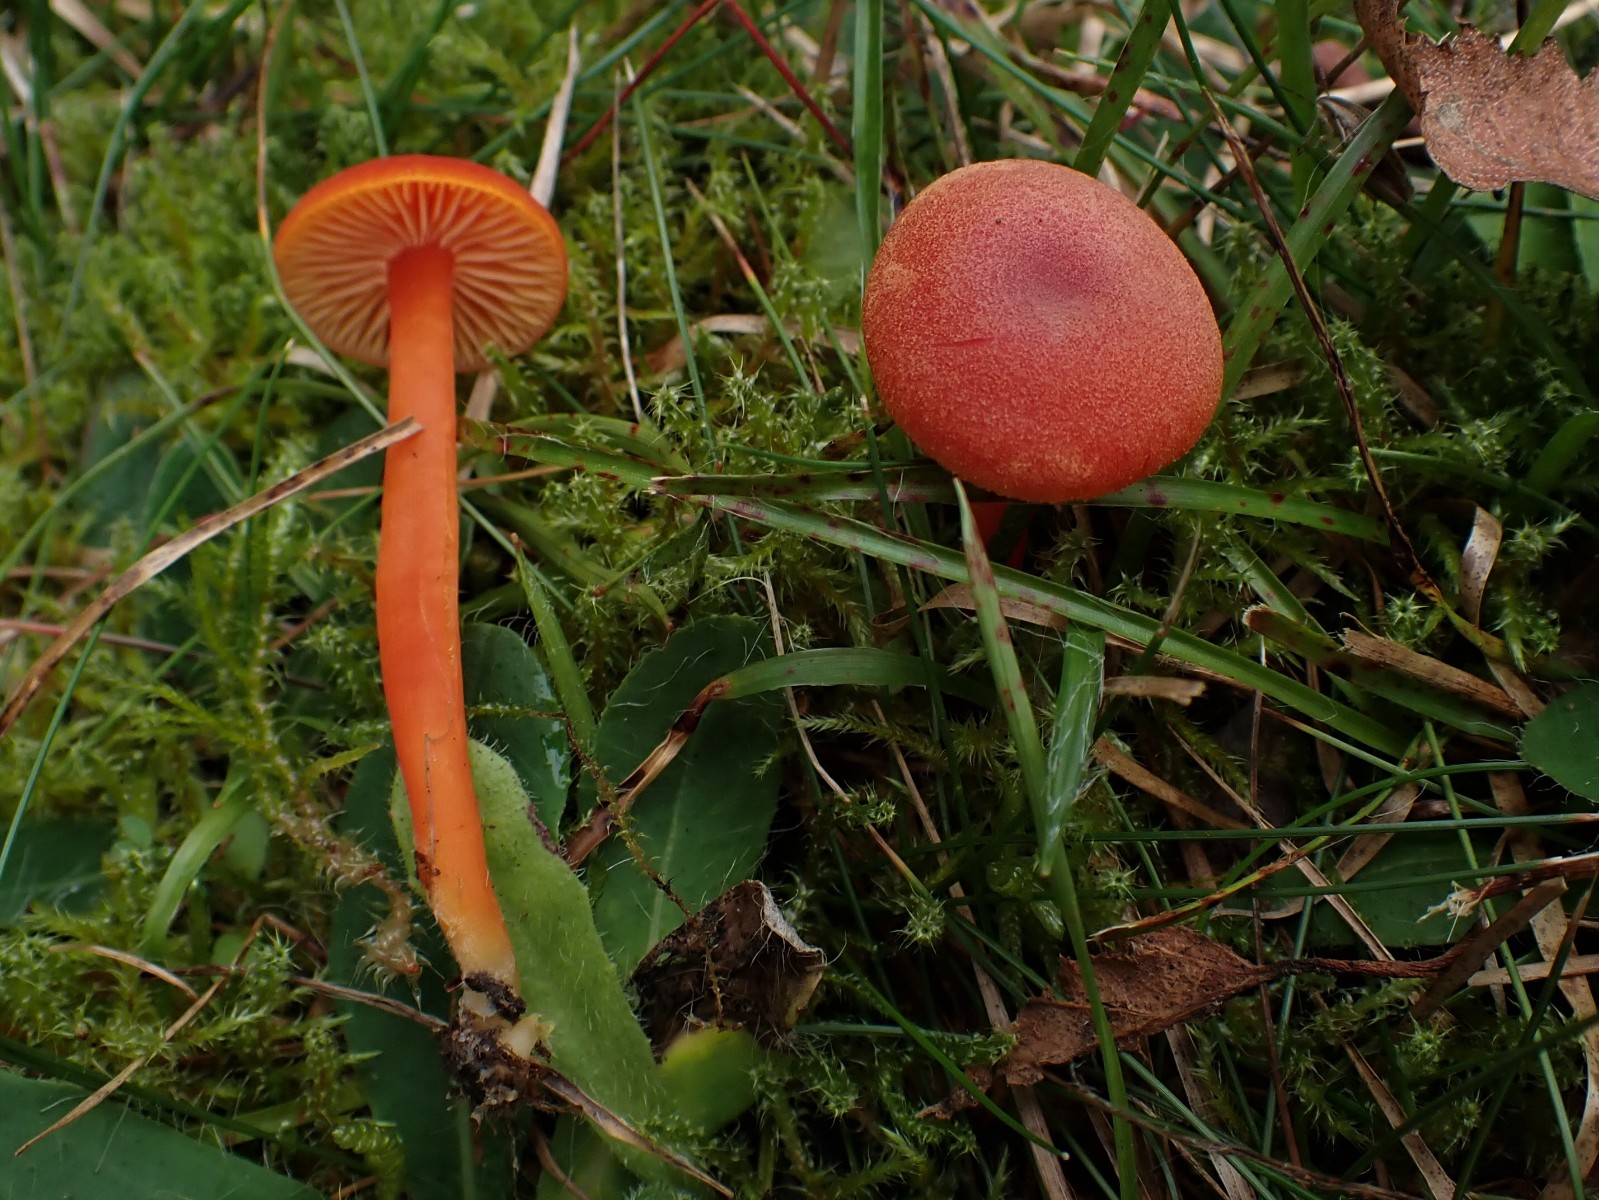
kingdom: Fungi
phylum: Basidiomycota
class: Agaricomycetes
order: Agaricales
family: Hygrophoraceae
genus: Hygrocybe
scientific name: Hygrocybe miniata
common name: mønje-vokshat
